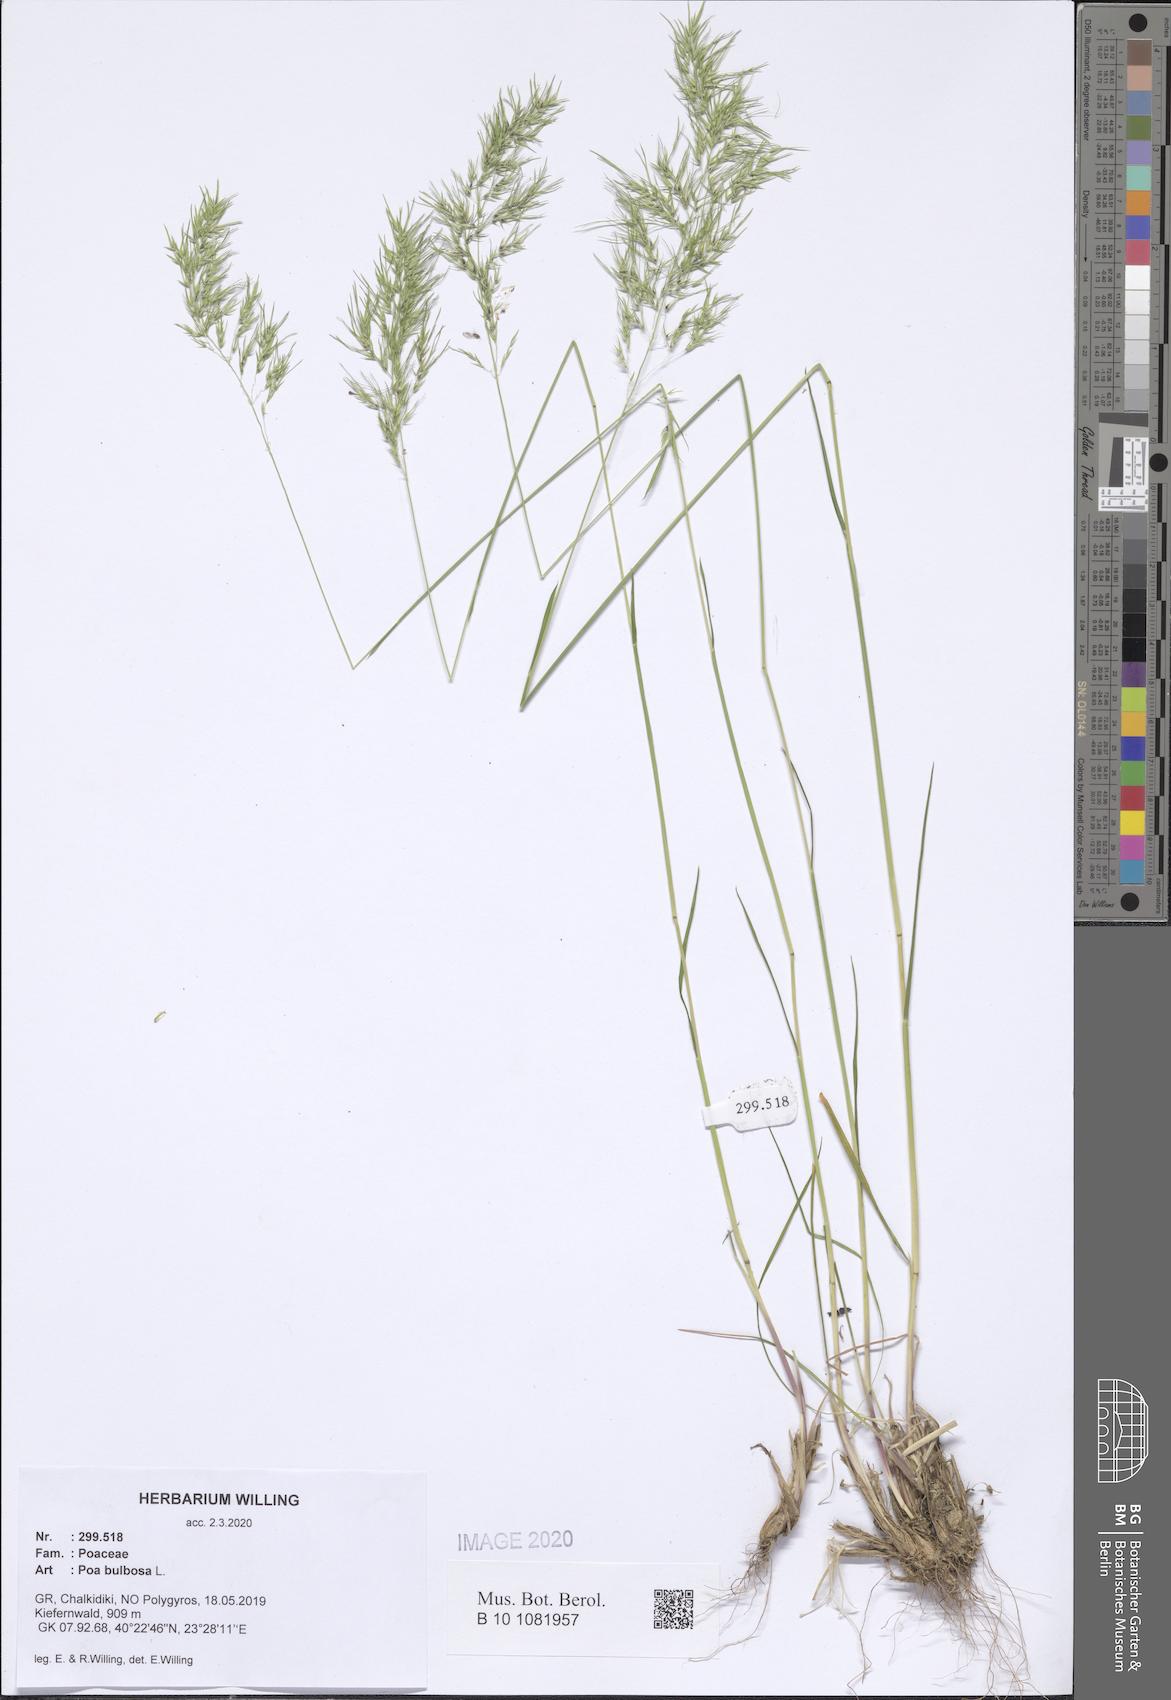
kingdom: Plantae
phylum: Tracheophyta
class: Liliopsida
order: Poales
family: Poaceae
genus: Poa
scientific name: Poa bulbosa
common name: Bulbous bluegrass
